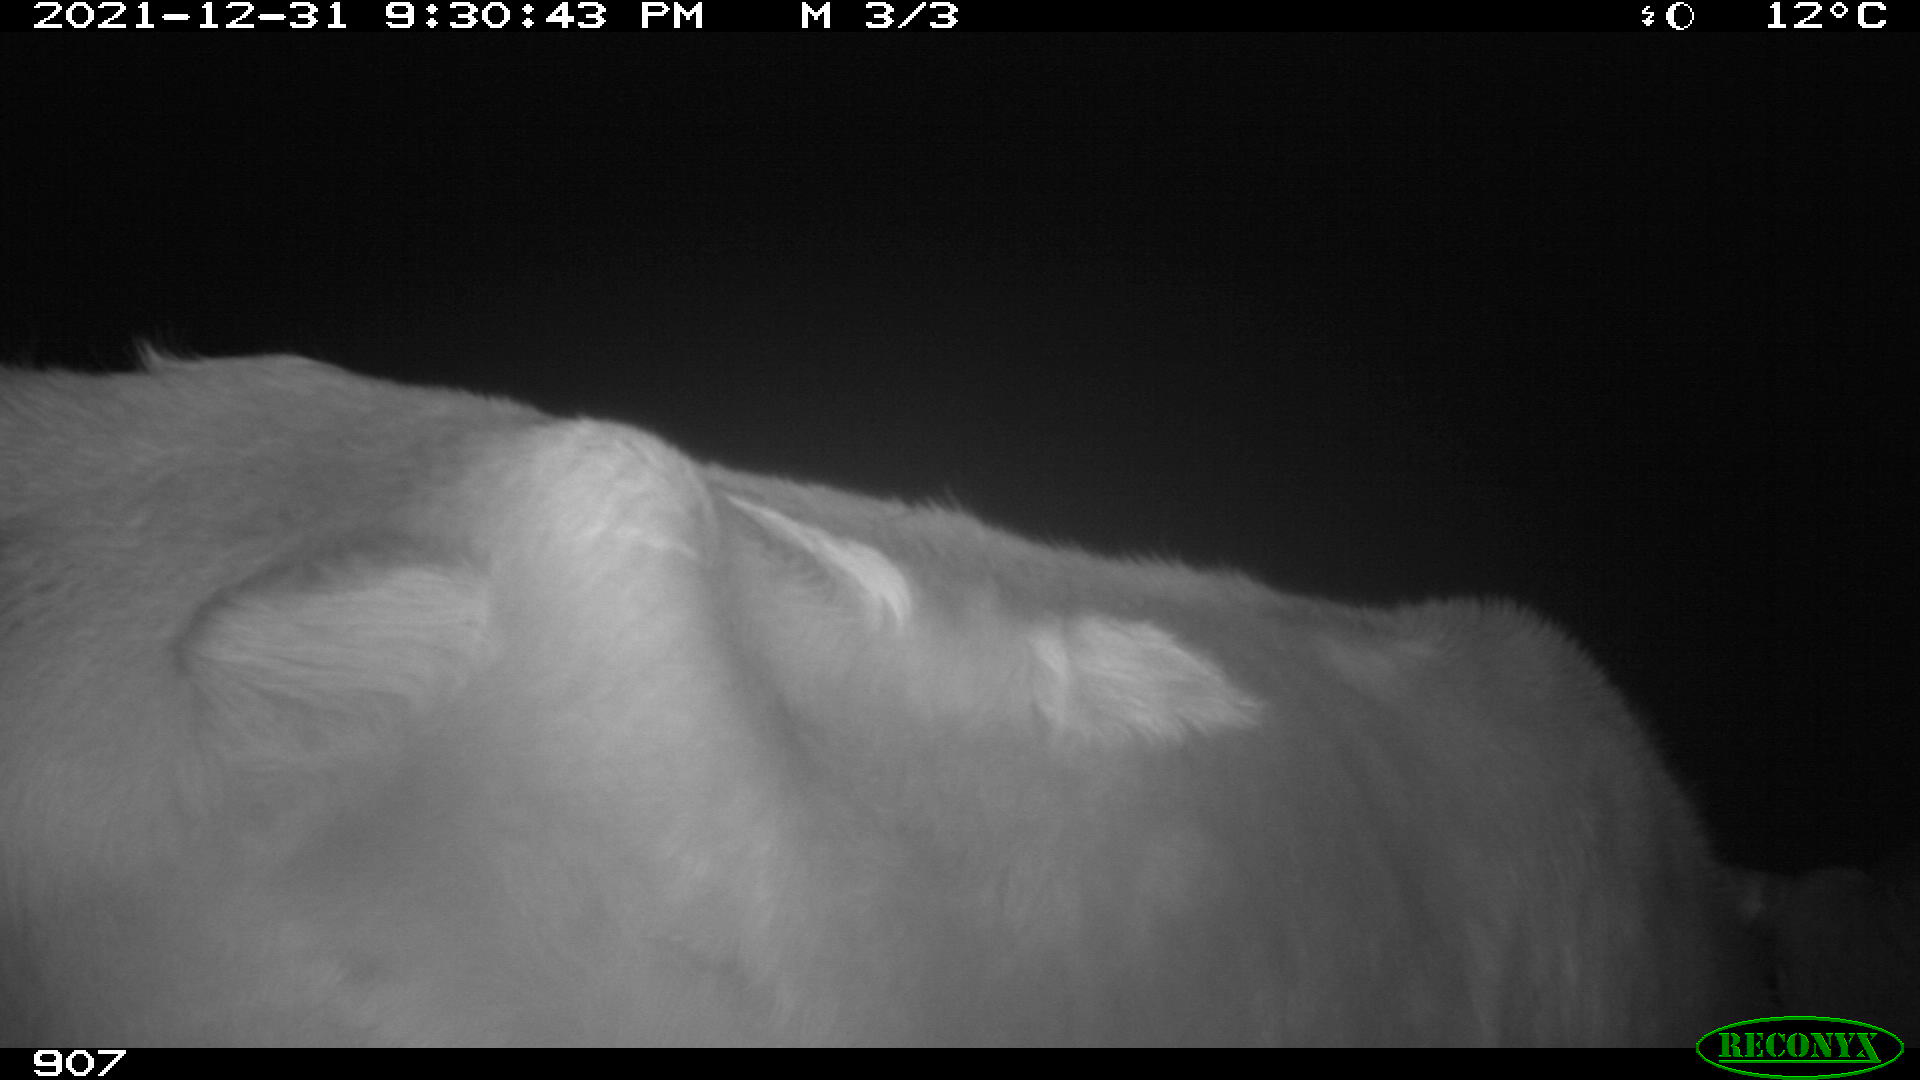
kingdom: Animalia
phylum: Chordata
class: Mammalia
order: Artiodactyla
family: Bovidae
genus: Bos
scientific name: Bos taurus
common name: Domesticated cattle
